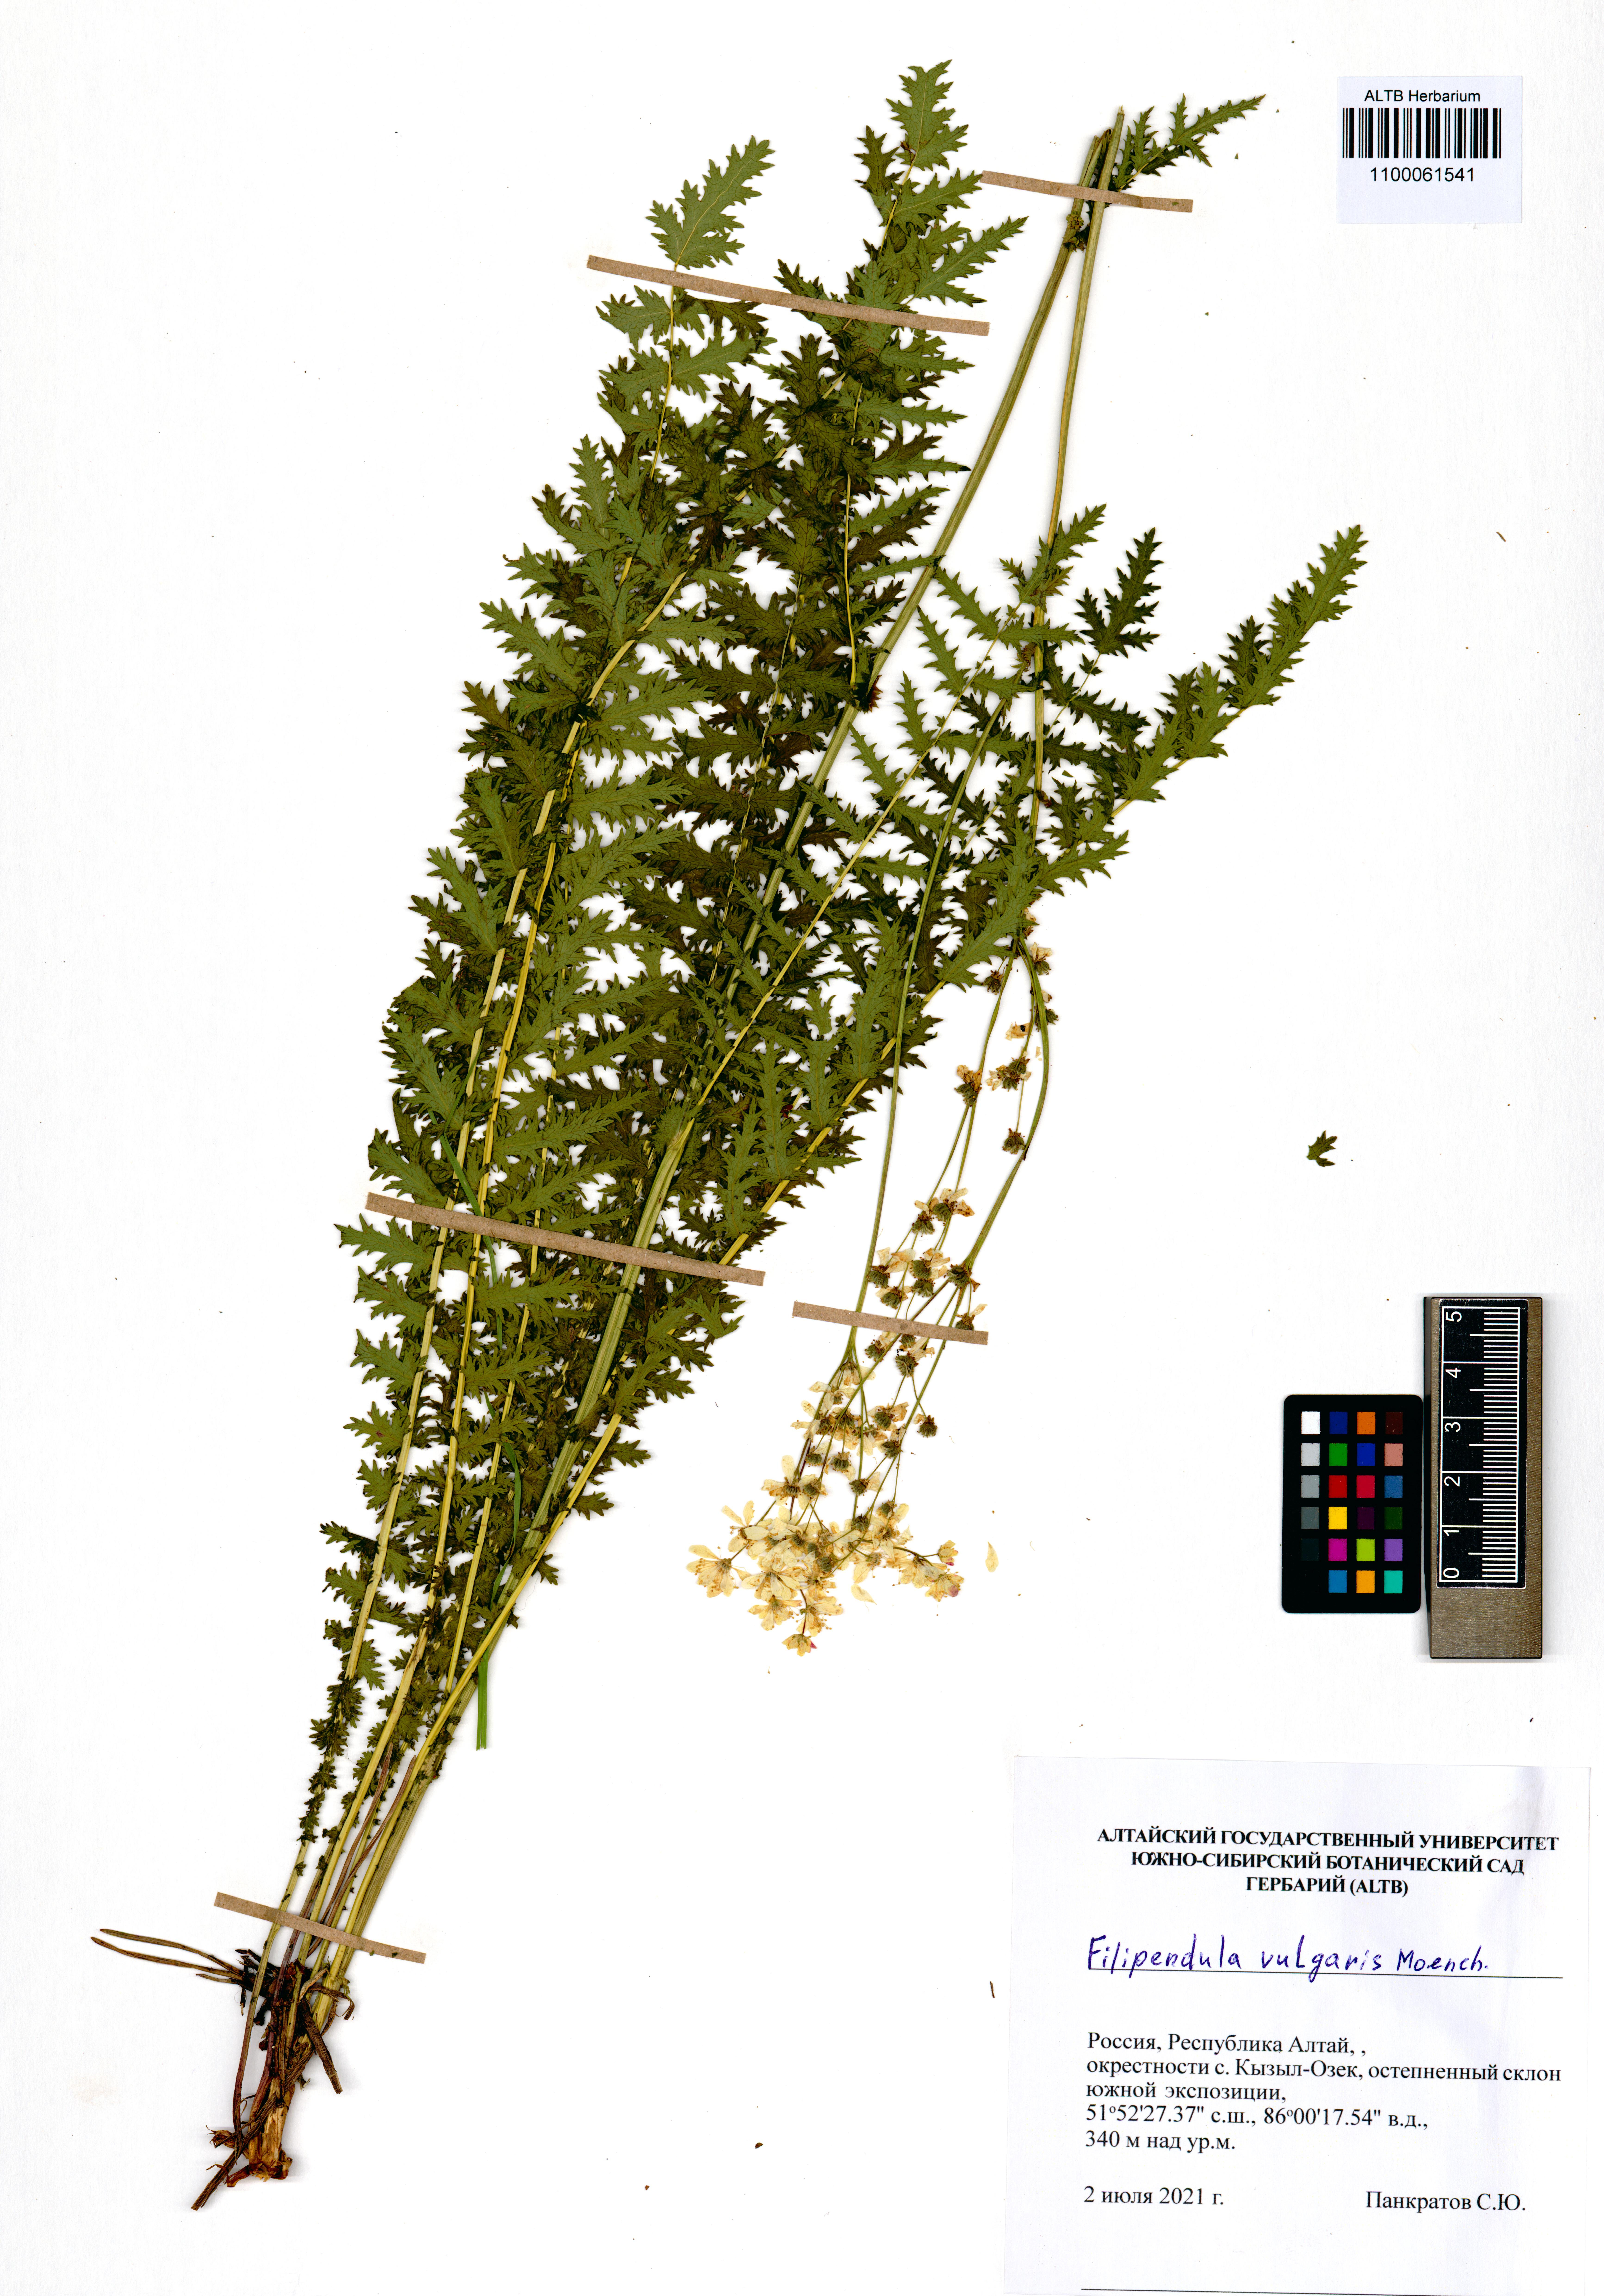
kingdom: Plantae
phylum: Tracheophyta
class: Magnoliopsida
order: Rosales
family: Rosaceae
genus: Filipendula
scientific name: Filipendula vulgaris
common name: Dropwort
